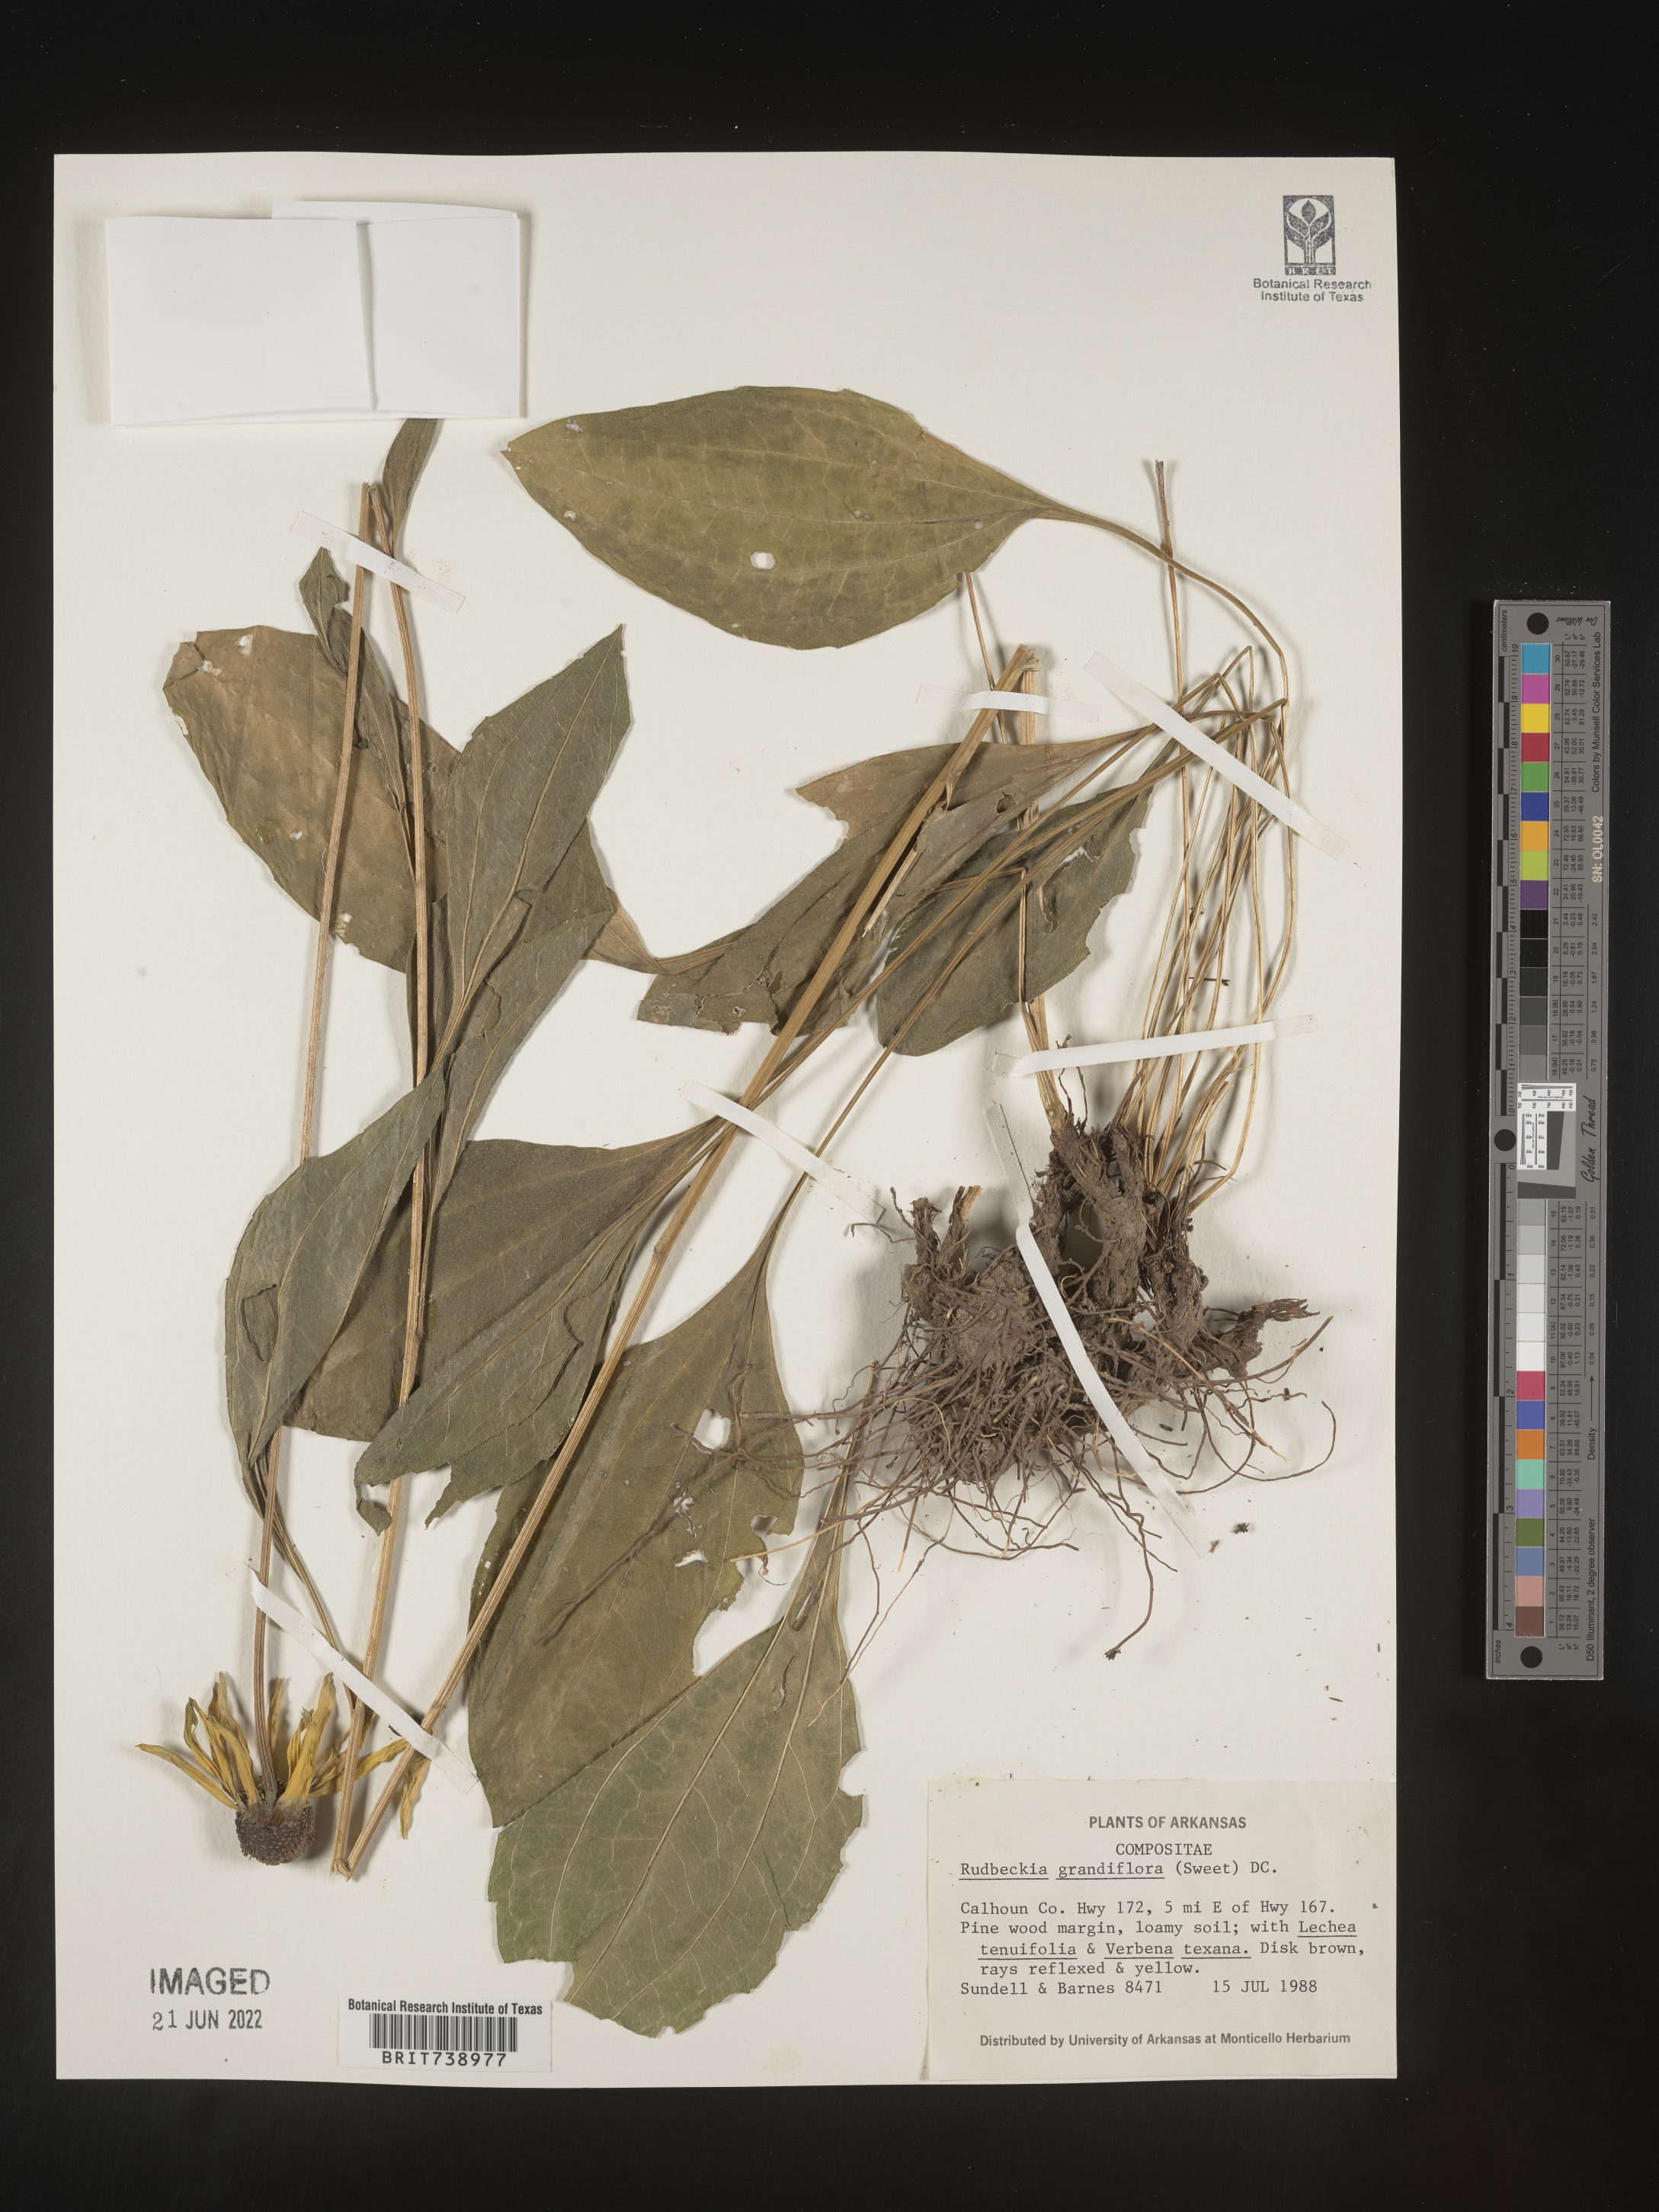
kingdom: Plantae
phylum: Tracheophyta
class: Magnoliopsida
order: Asterales
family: Asteraceae
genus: Rudbeckia
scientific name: Rudbeckia grandiflora
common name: Large-flowered coneflower
